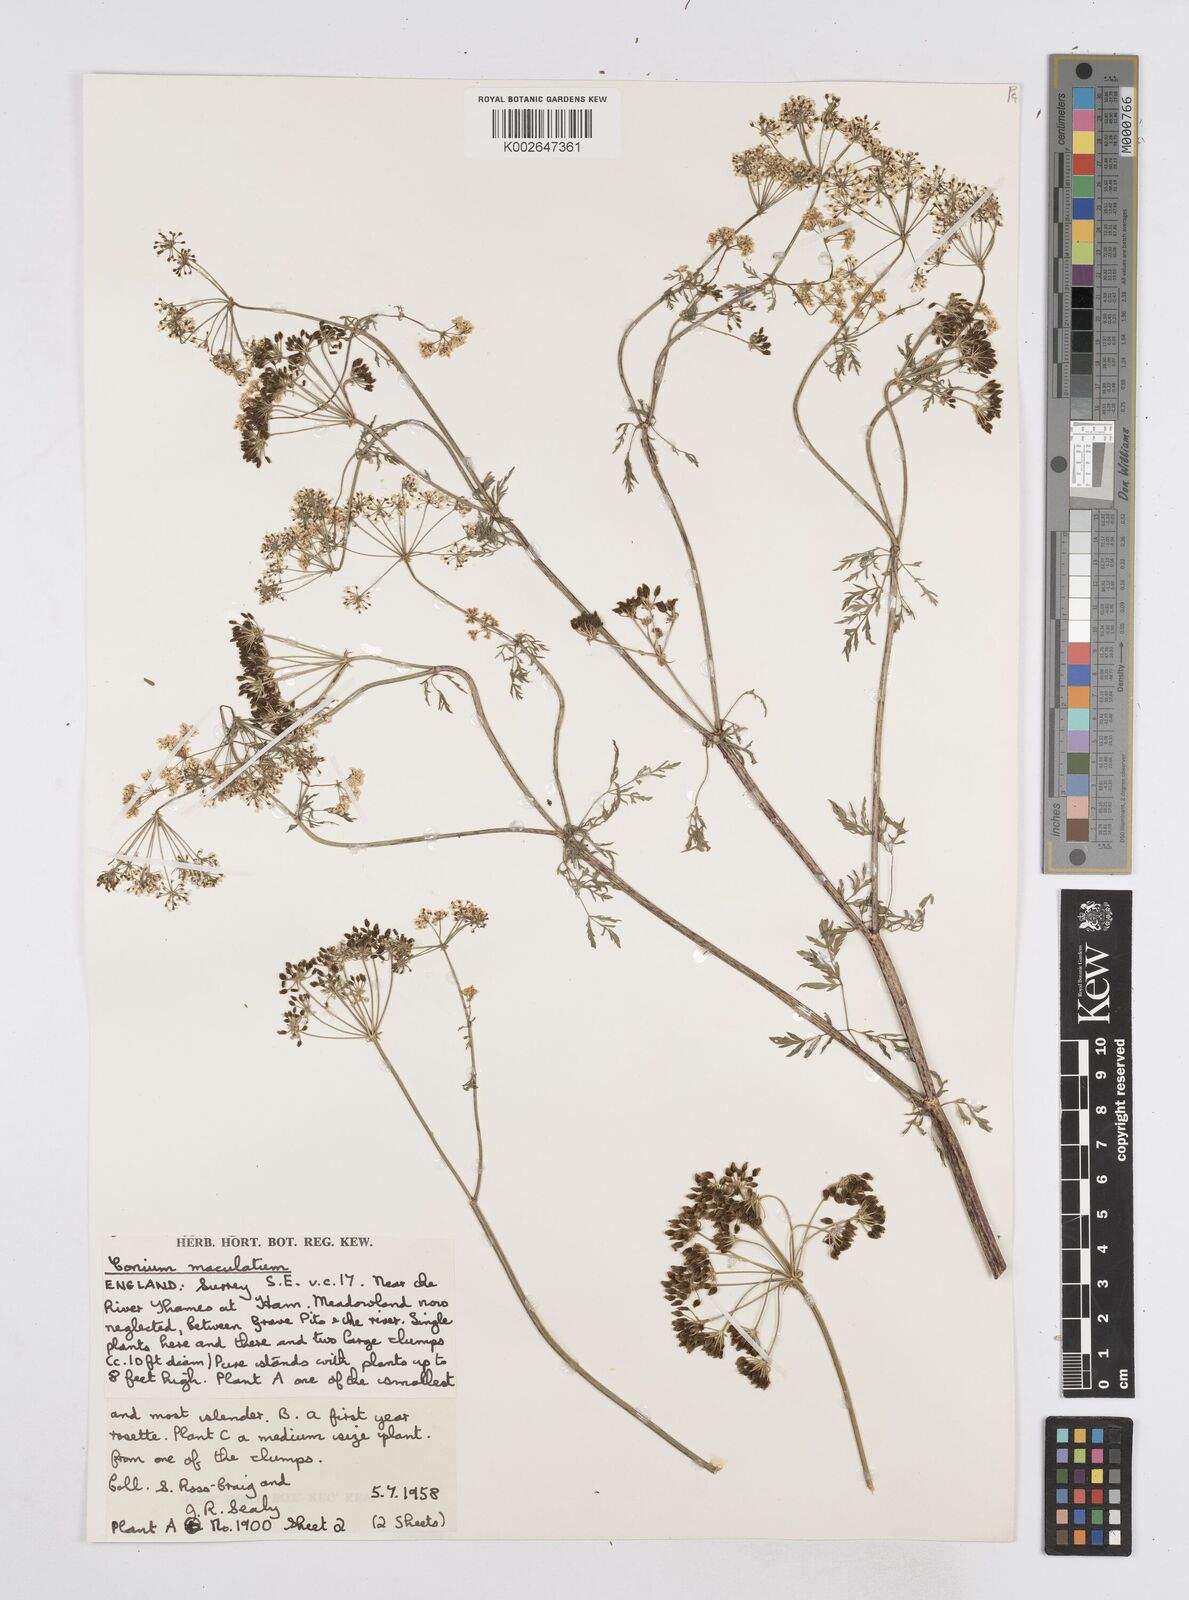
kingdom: Plantae
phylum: Tracheophyta
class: Magnoliopsida
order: Apiales
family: Apiaceae
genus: Conium
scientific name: Conium maculatum
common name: Hemlock
